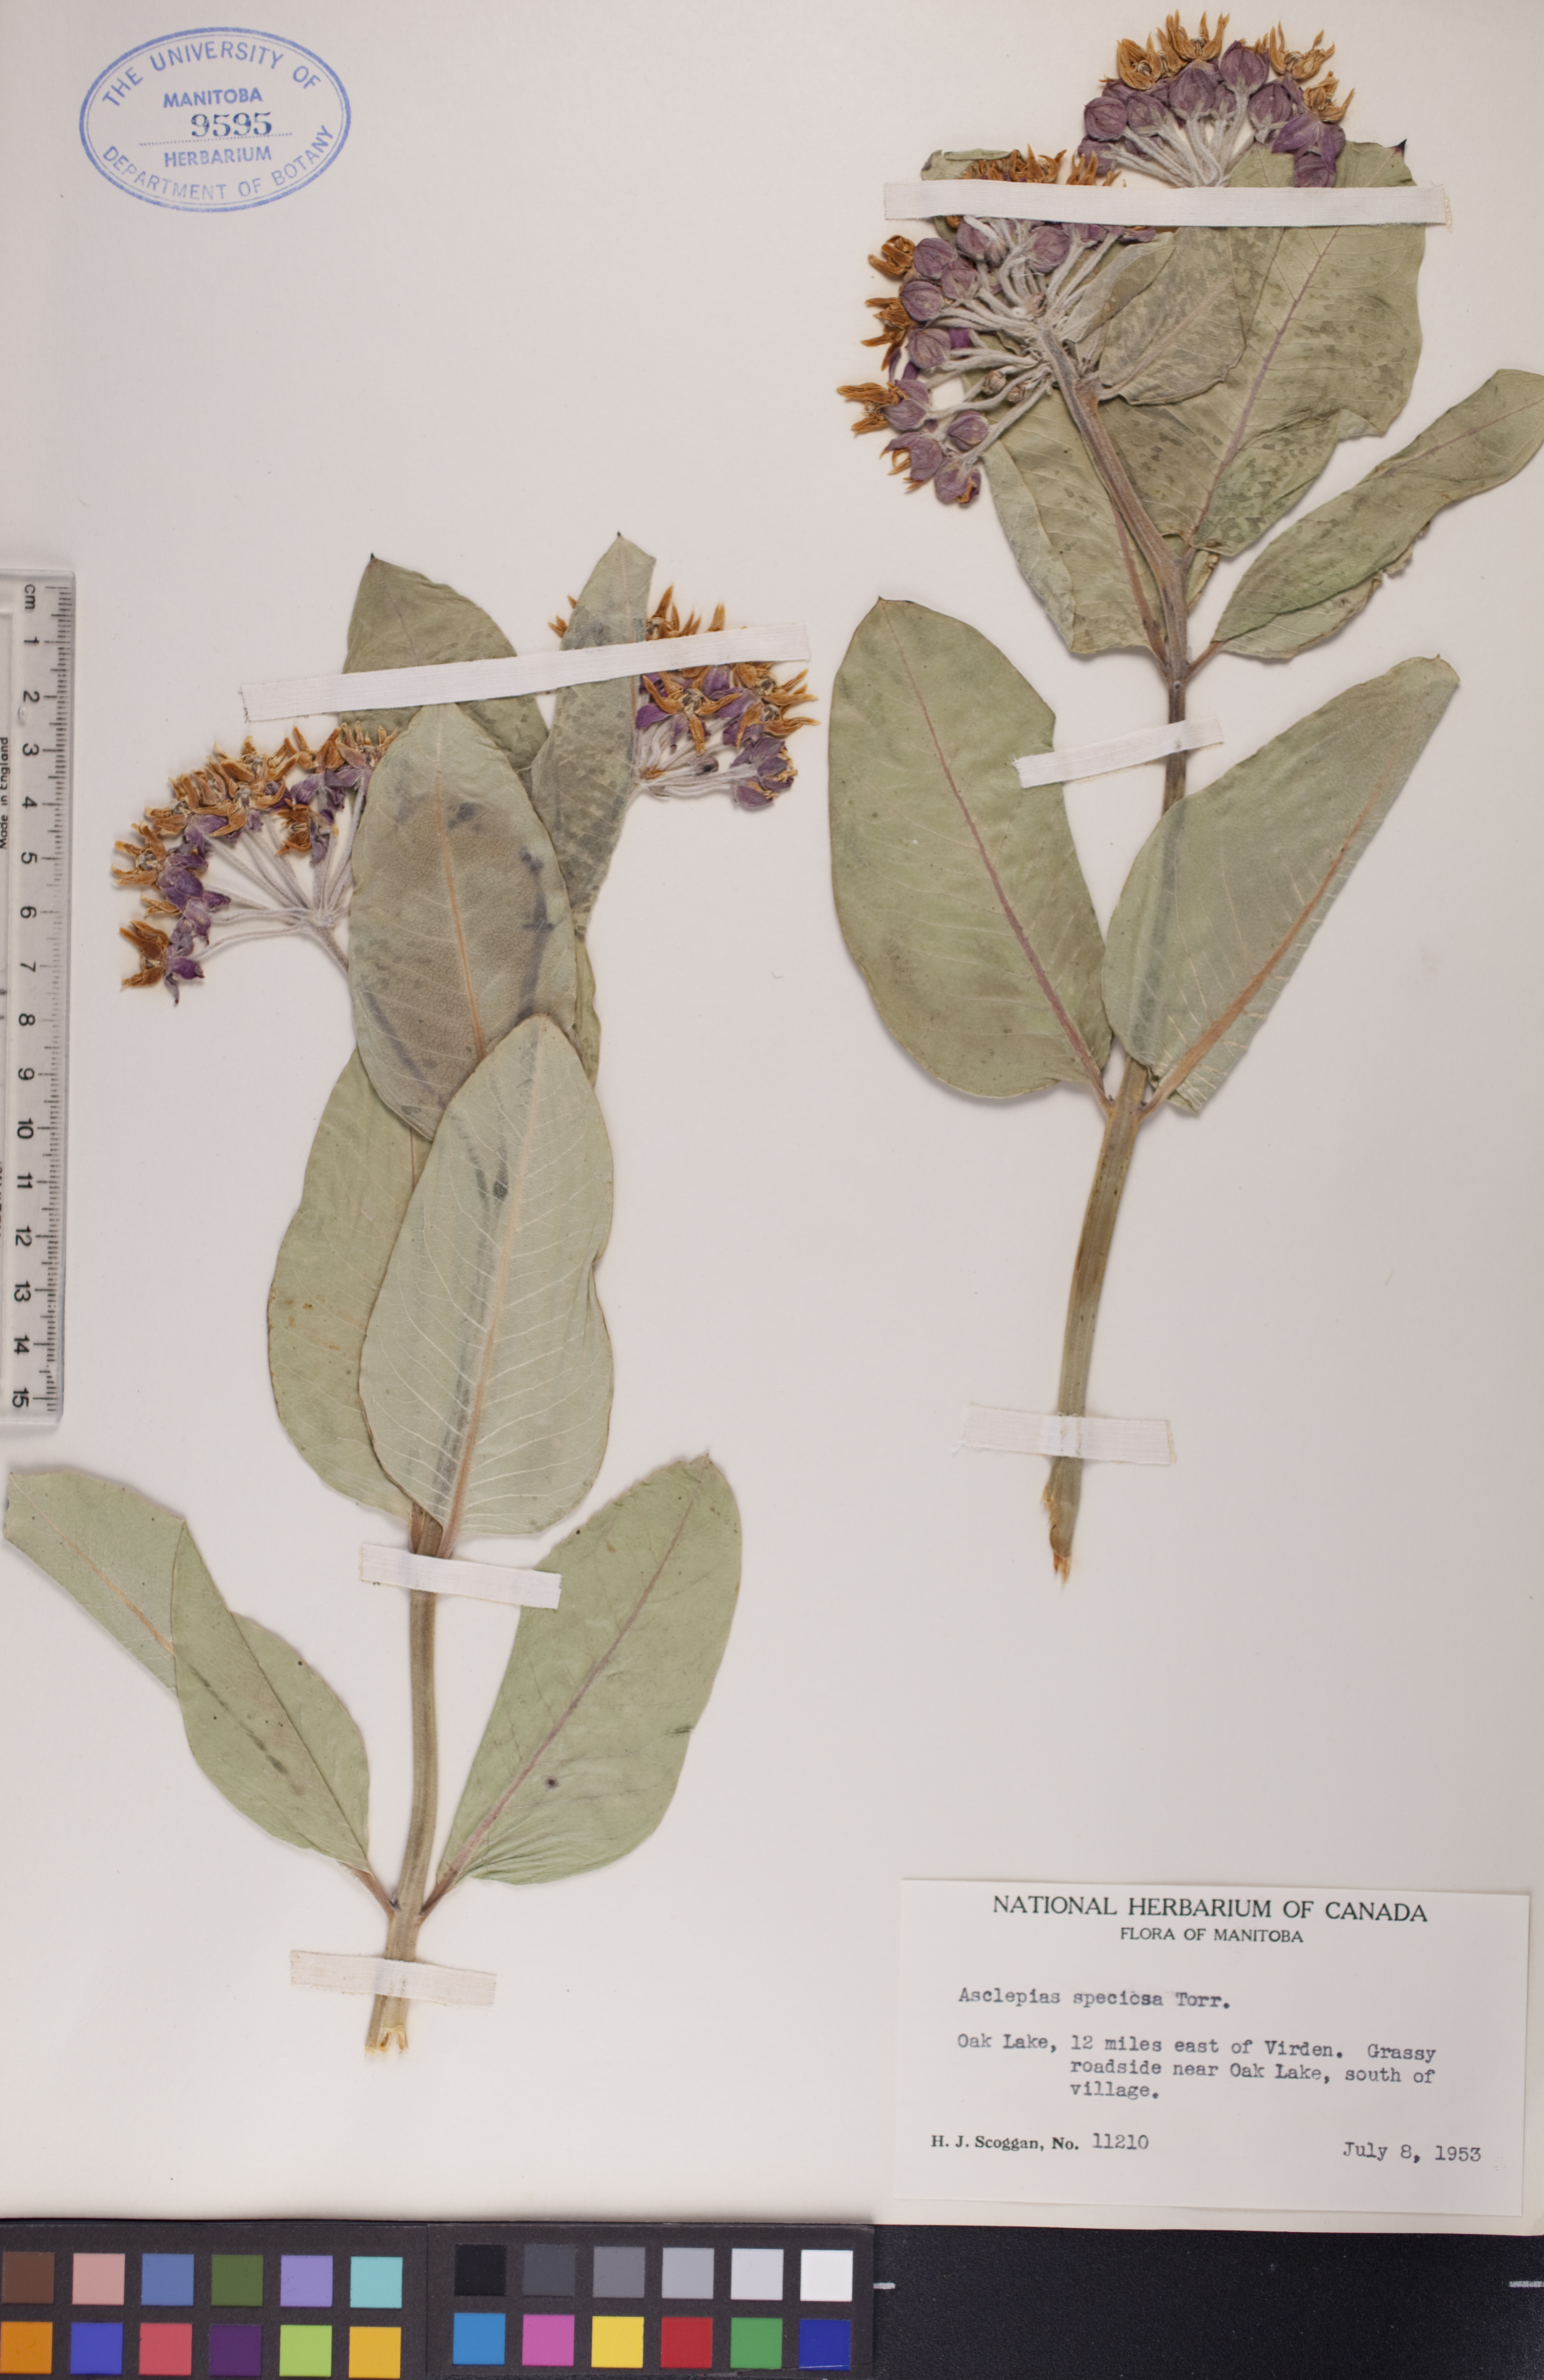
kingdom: Plantae
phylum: Tracheophyta
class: Magnoliopsida
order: Gentianales
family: Apocynaceae
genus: Asclepias
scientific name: Asclepias speciosa
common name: Showy milkweed
